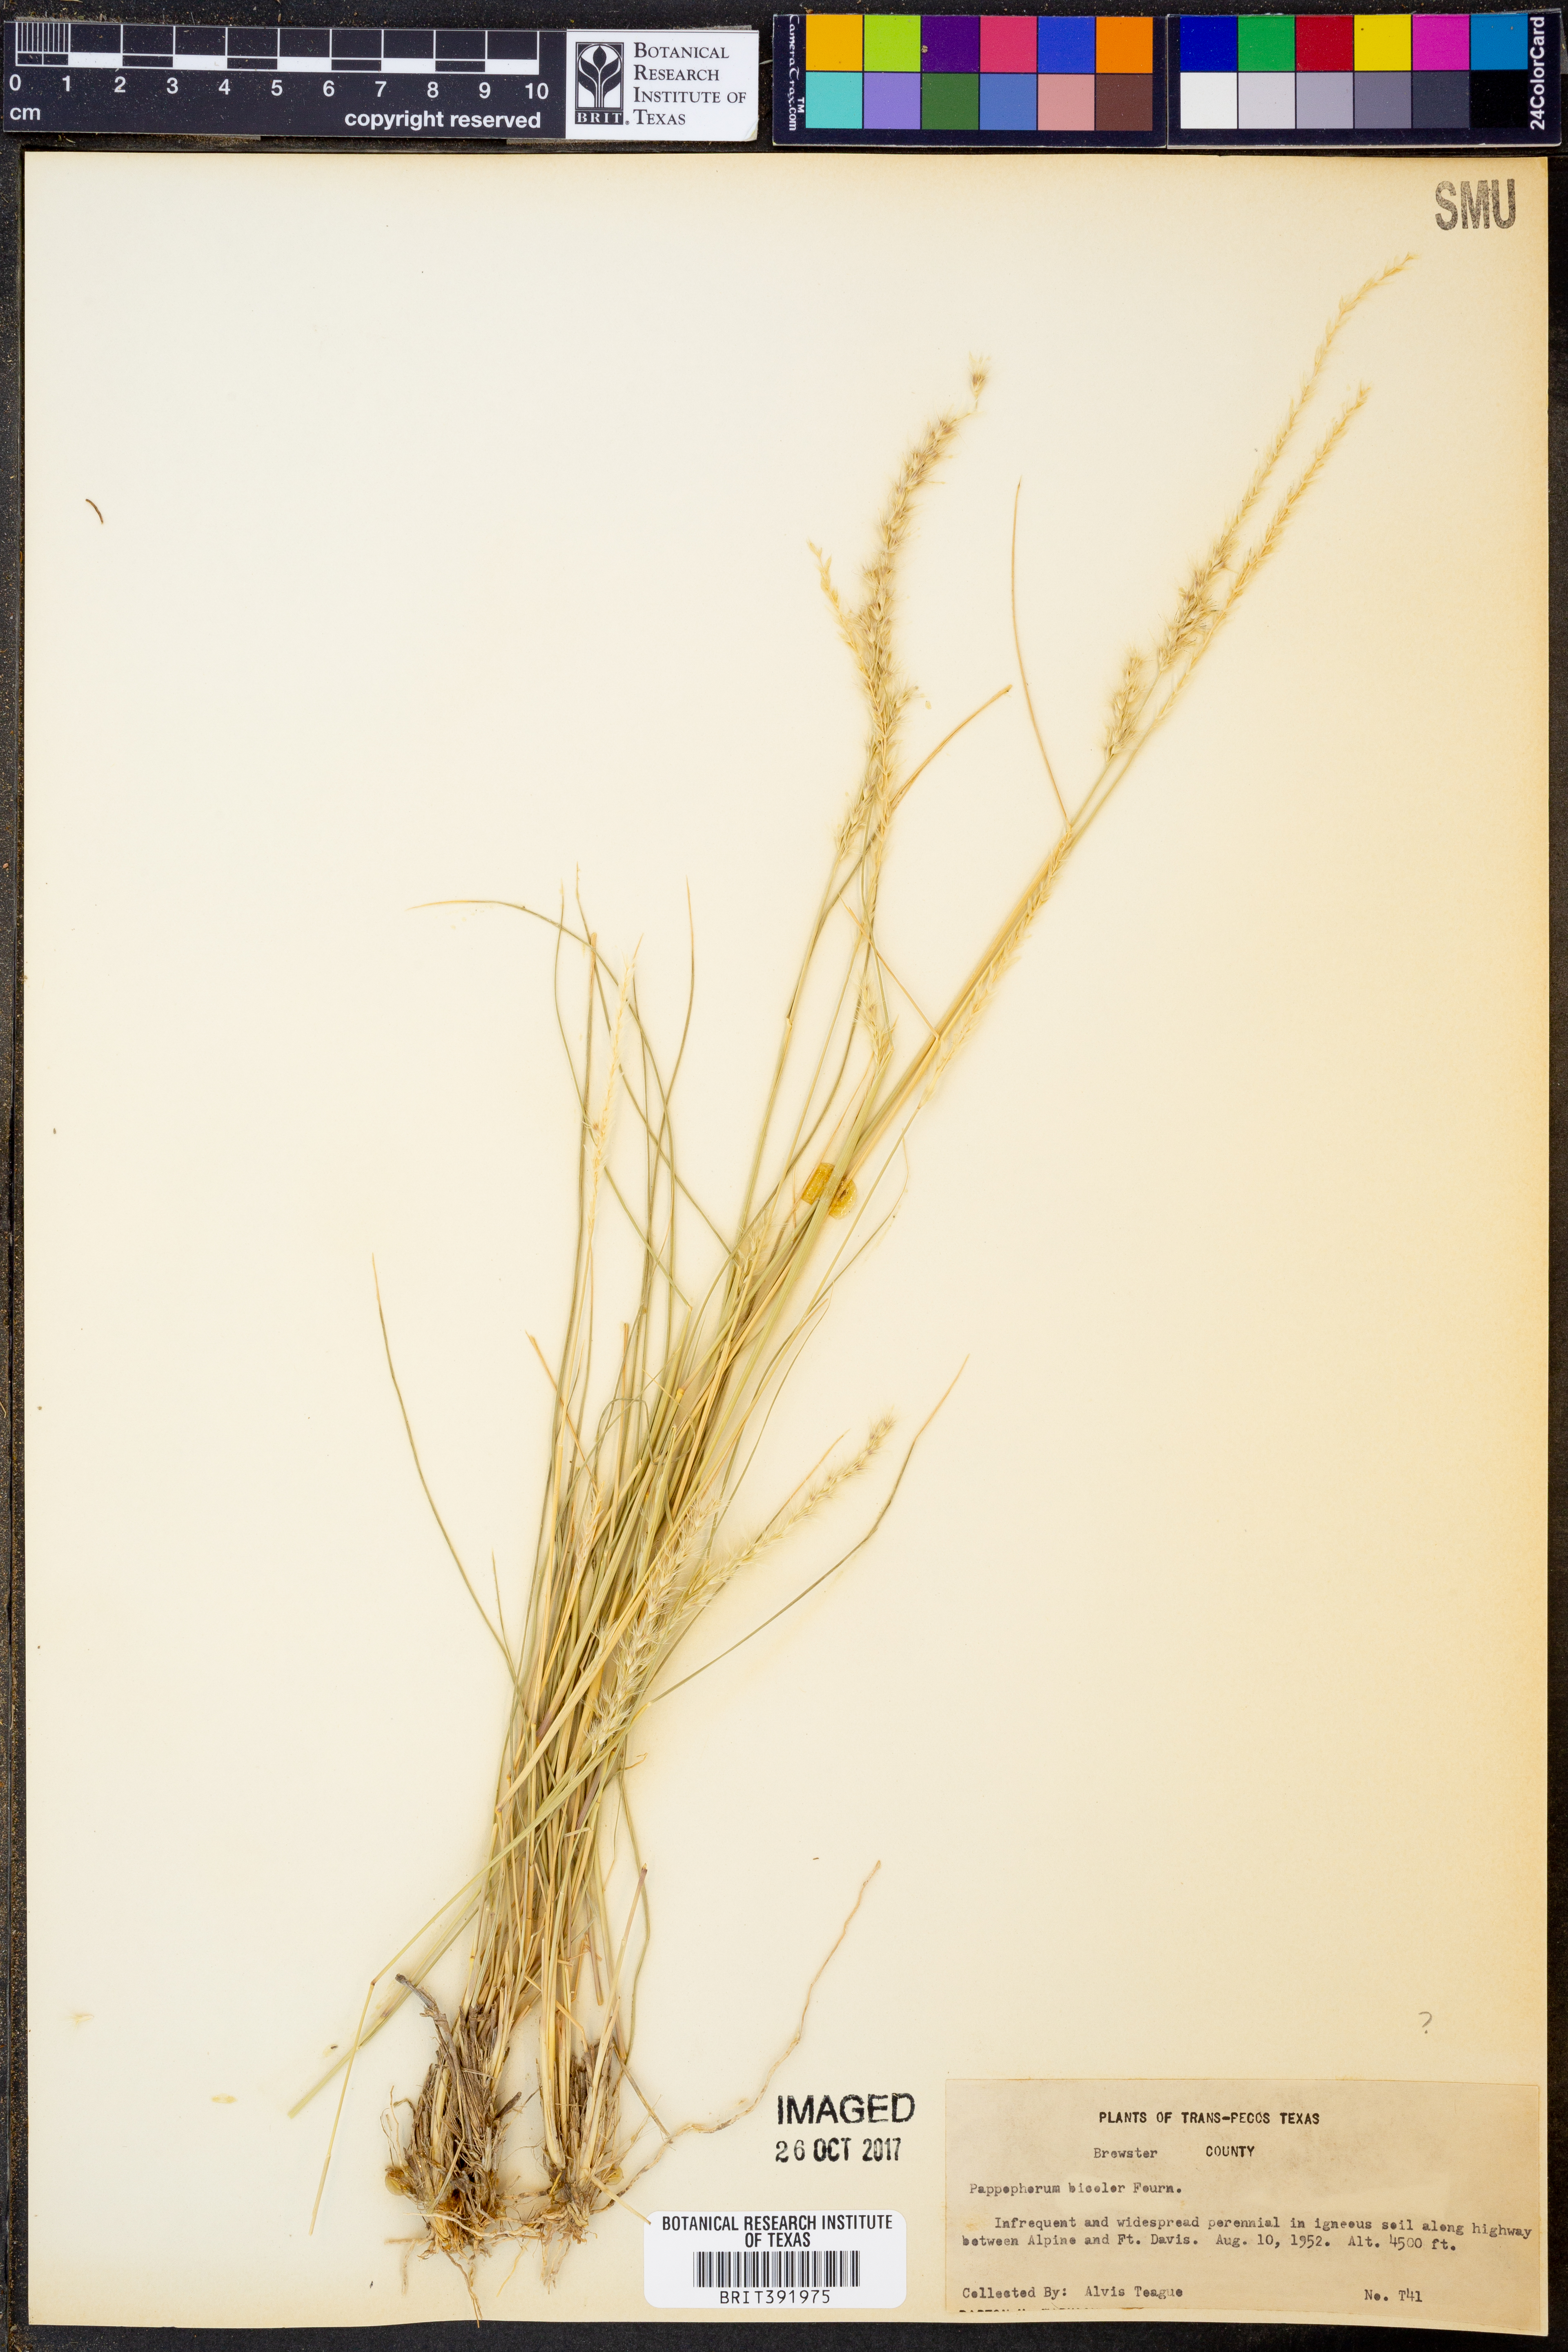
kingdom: Plantae
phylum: Tracheophyta
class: Liliopsida
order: Poales
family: Poaceae
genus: Pappophorum
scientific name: Pappophorum bicolor
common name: Pink pappus grass
